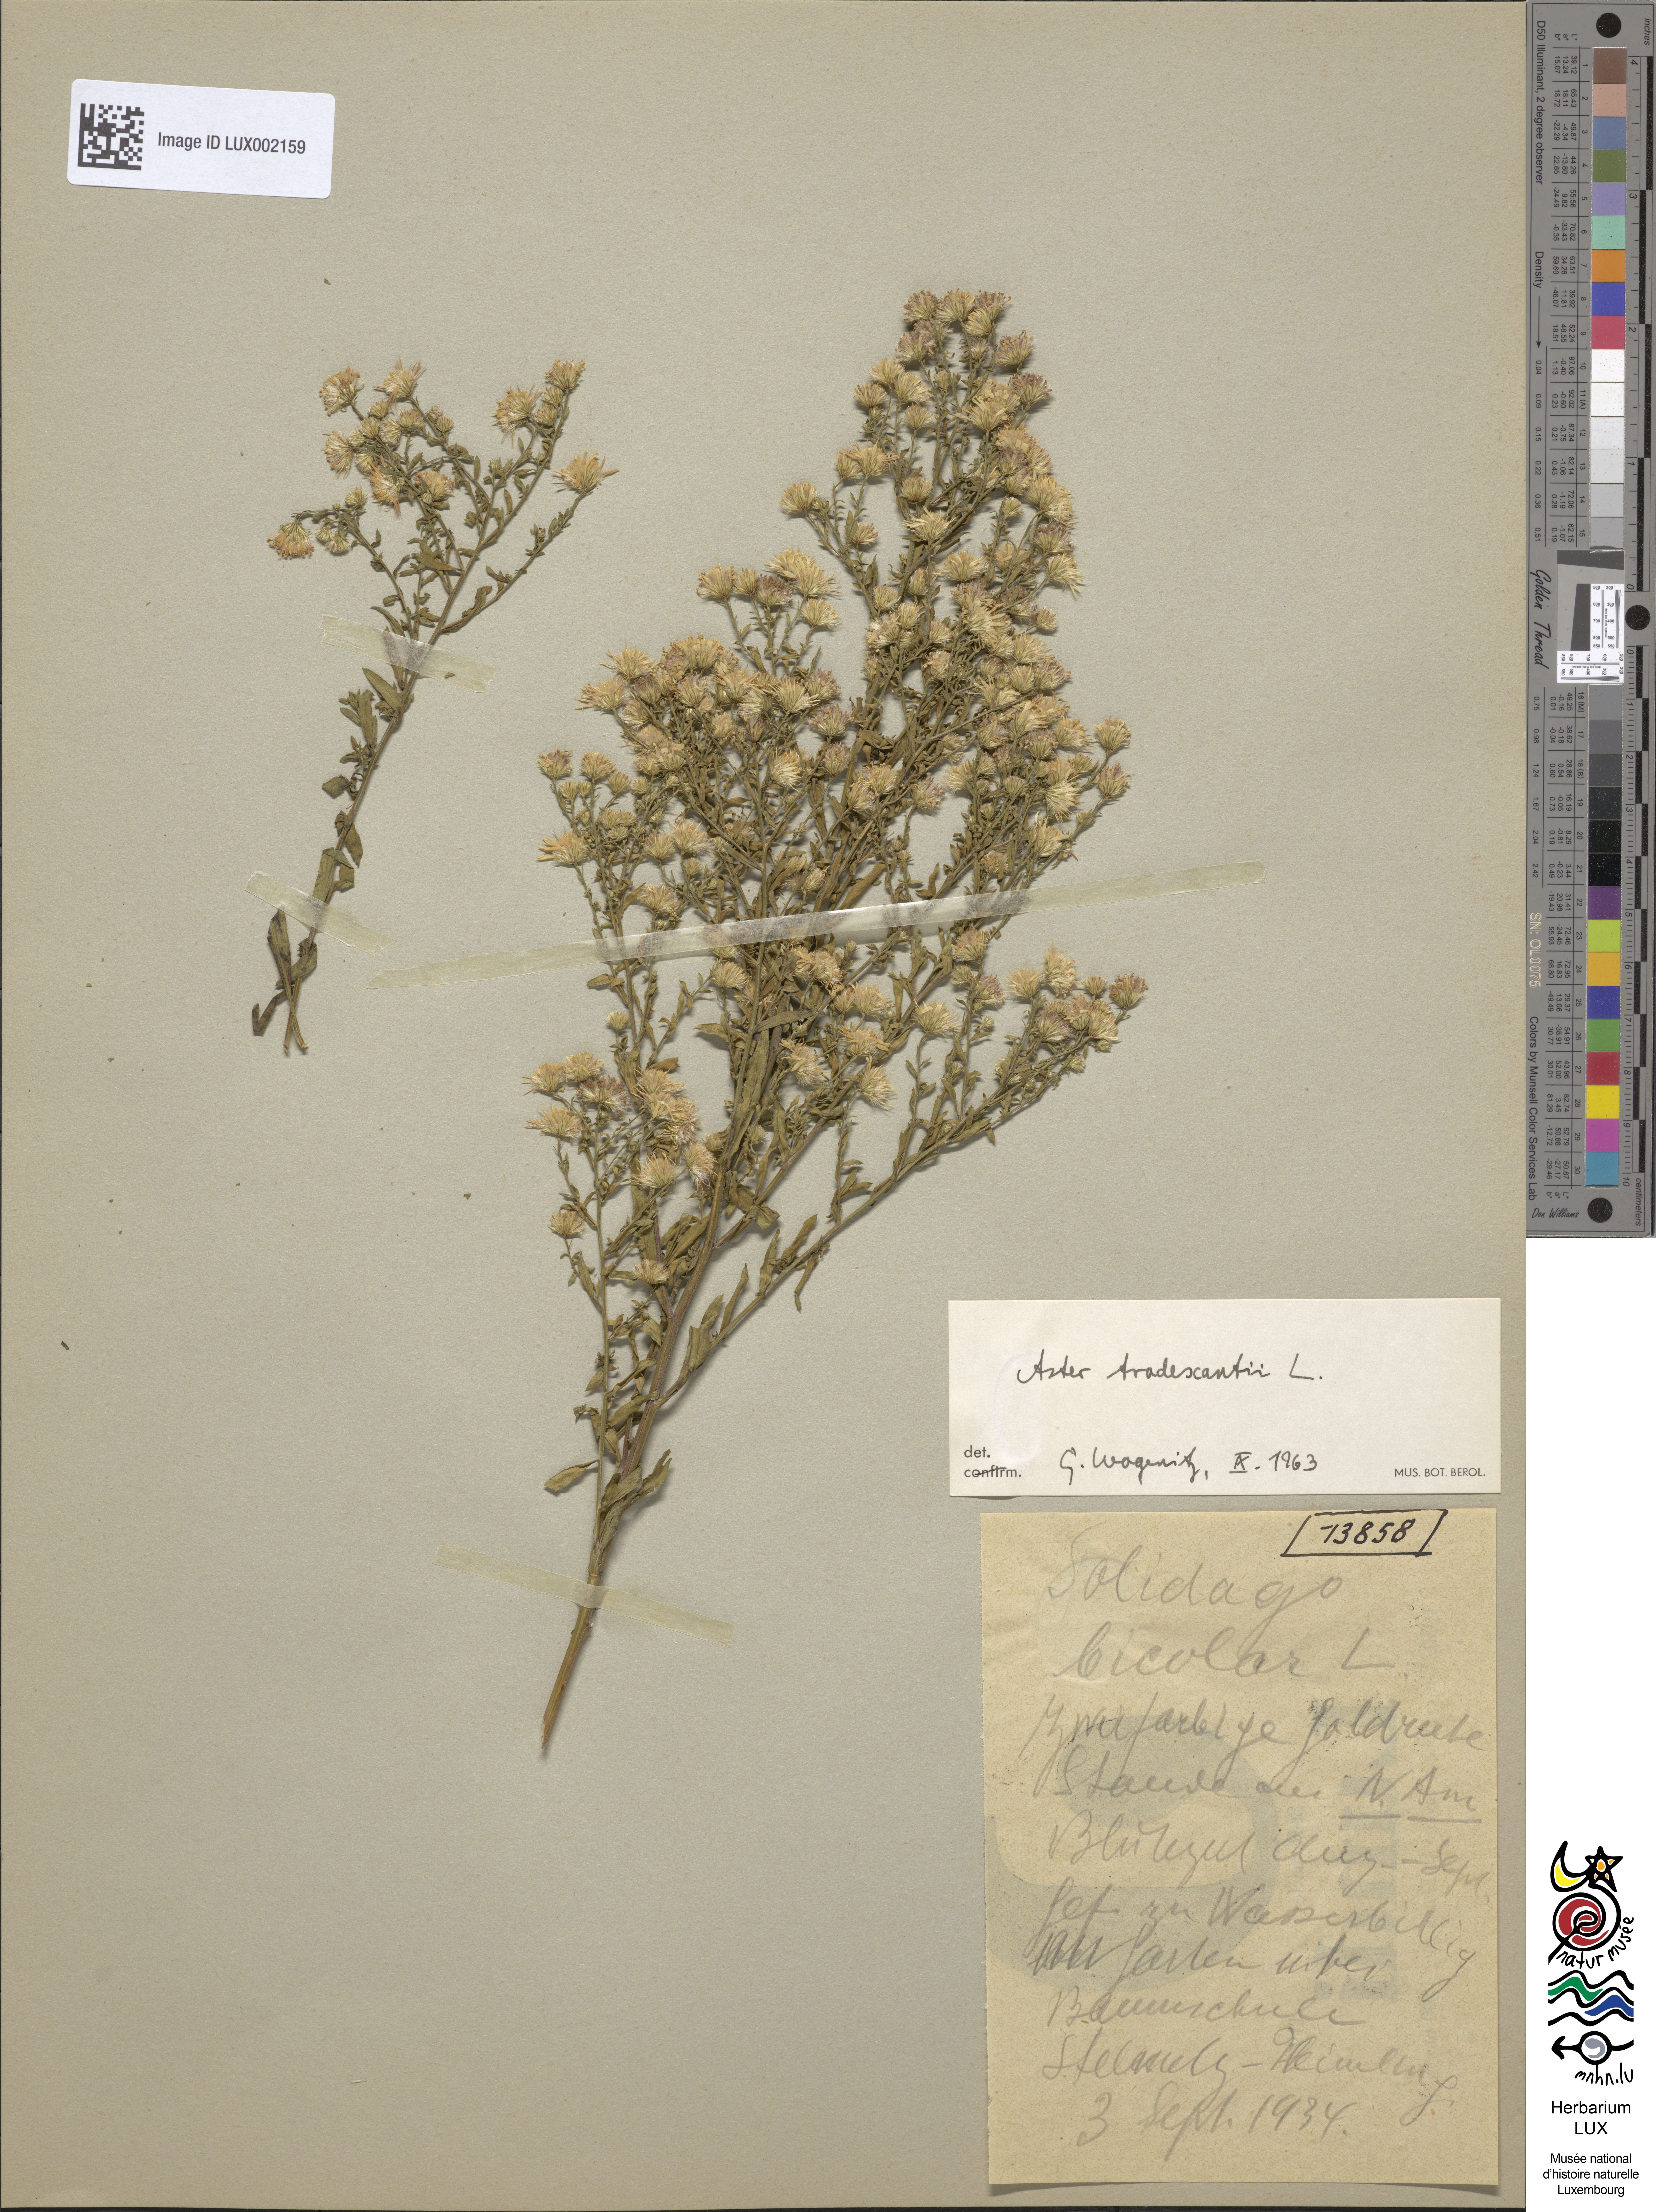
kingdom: Plantae
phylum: Tracheophyta
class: Magnoliopsida
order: Asterales
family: Asteraceae
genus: Solidago
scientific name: Solidago bicolor
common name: Silverrod
